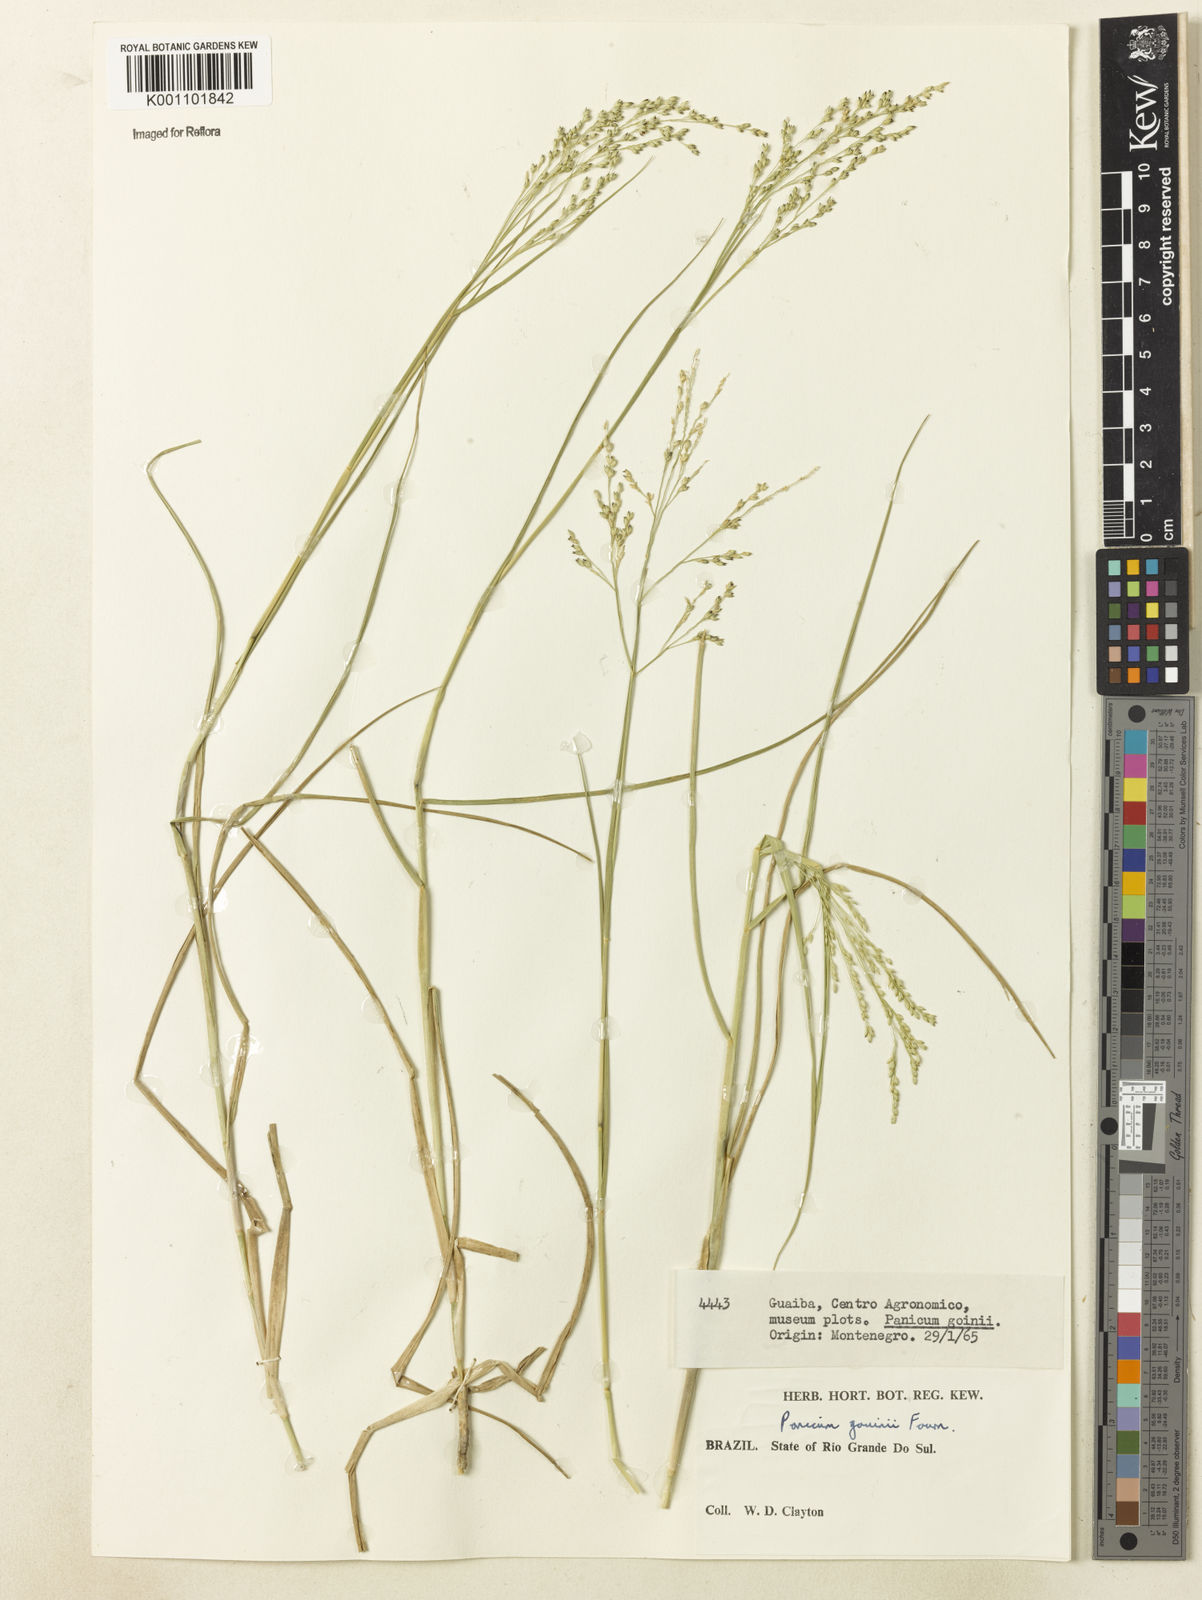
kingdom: Plantae
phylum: Tracheophyta
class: Liliopsida
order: Poales
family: Poaceae
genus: Panicum
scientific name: Panicum gouinii
